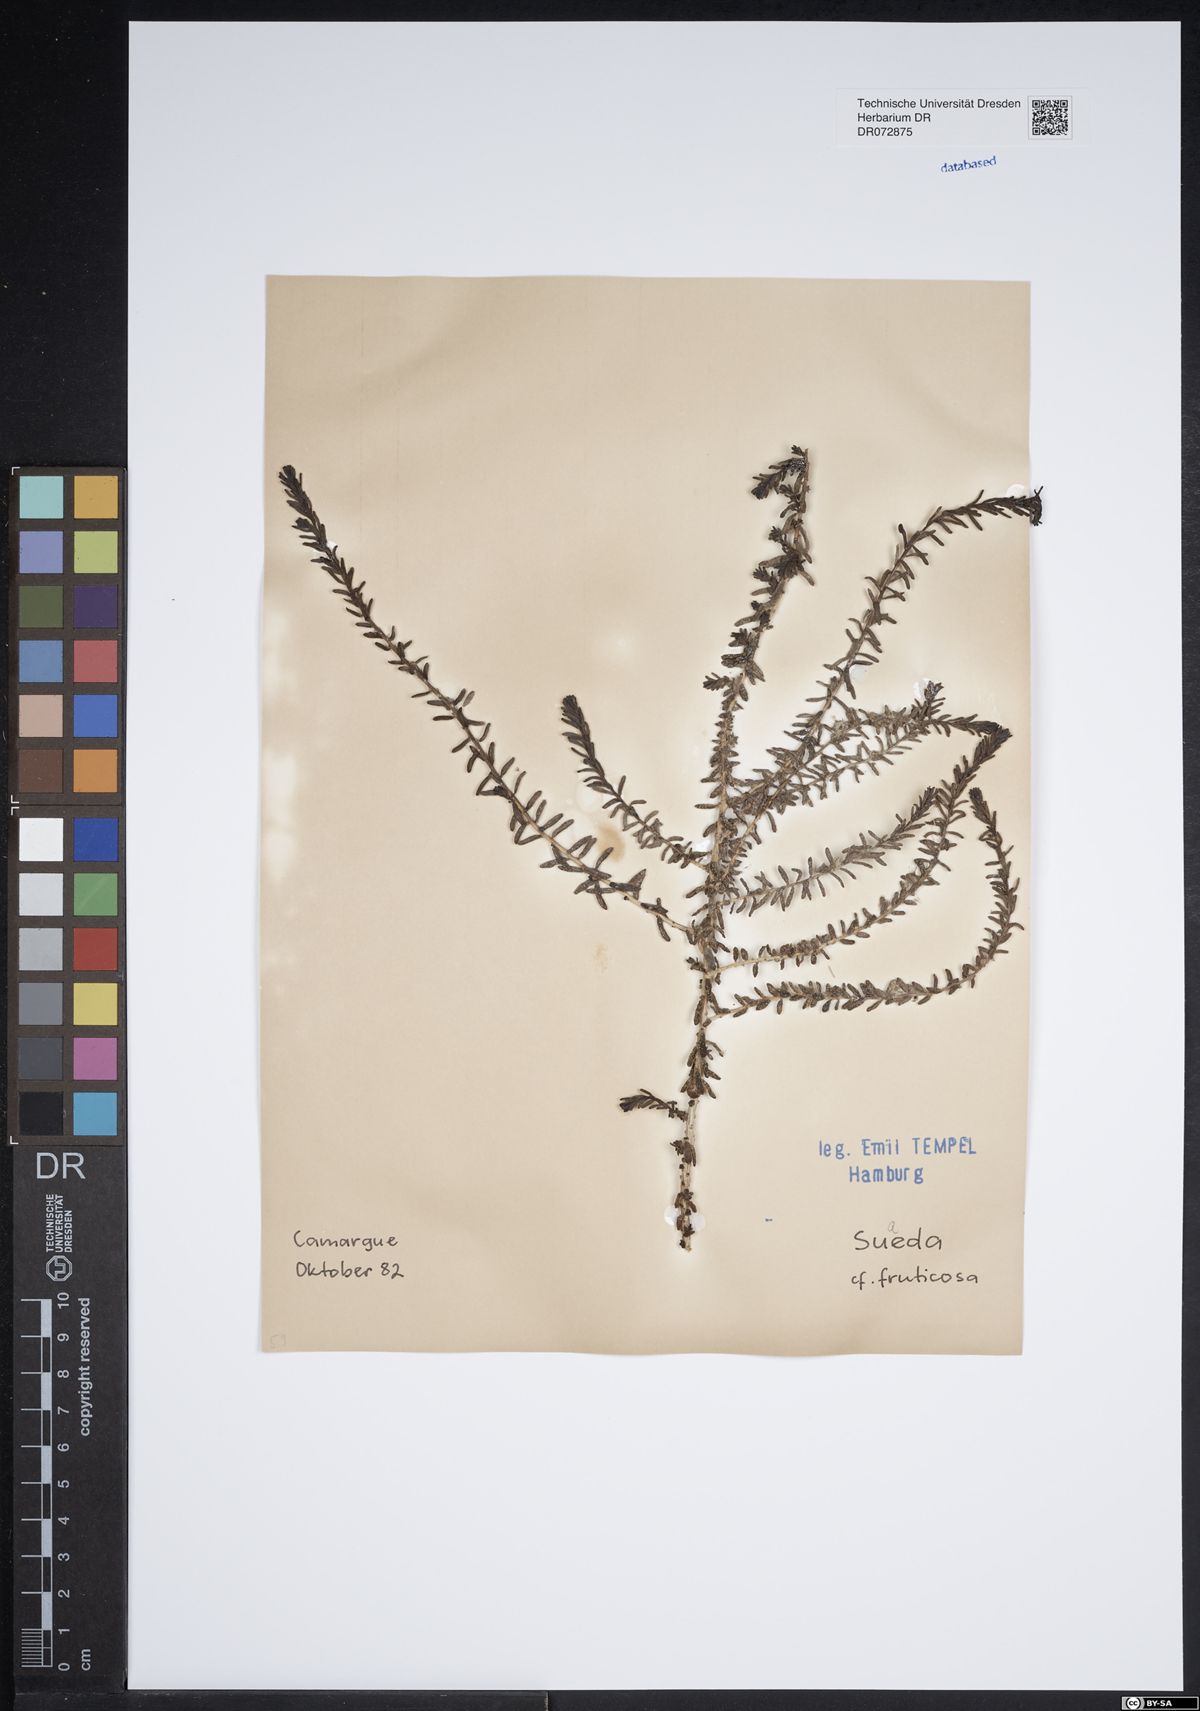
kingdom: Plantae
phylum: Tracheophyta
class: Magnoliopsida
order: Caryophyllales
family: Amaranthaceae
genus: Suaeda
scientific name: Suaeda fruticosa
